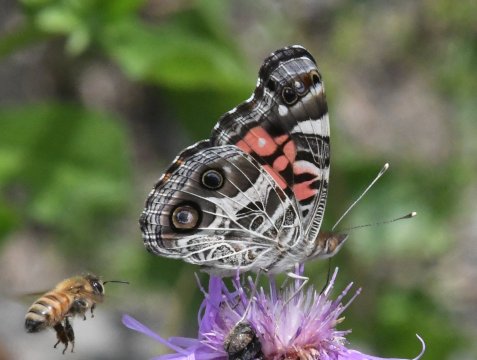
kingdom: Animalia
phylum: Arthropoda
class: Insecta
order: Lepidoptera
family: Nymphalidae
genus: Vanessa
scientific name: Vanessa virginiensis
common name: American Lady
